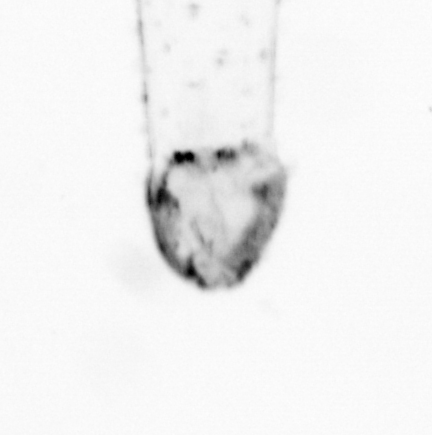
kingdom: Animalia
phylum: Chaetognatha
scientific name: Chaetognatha
